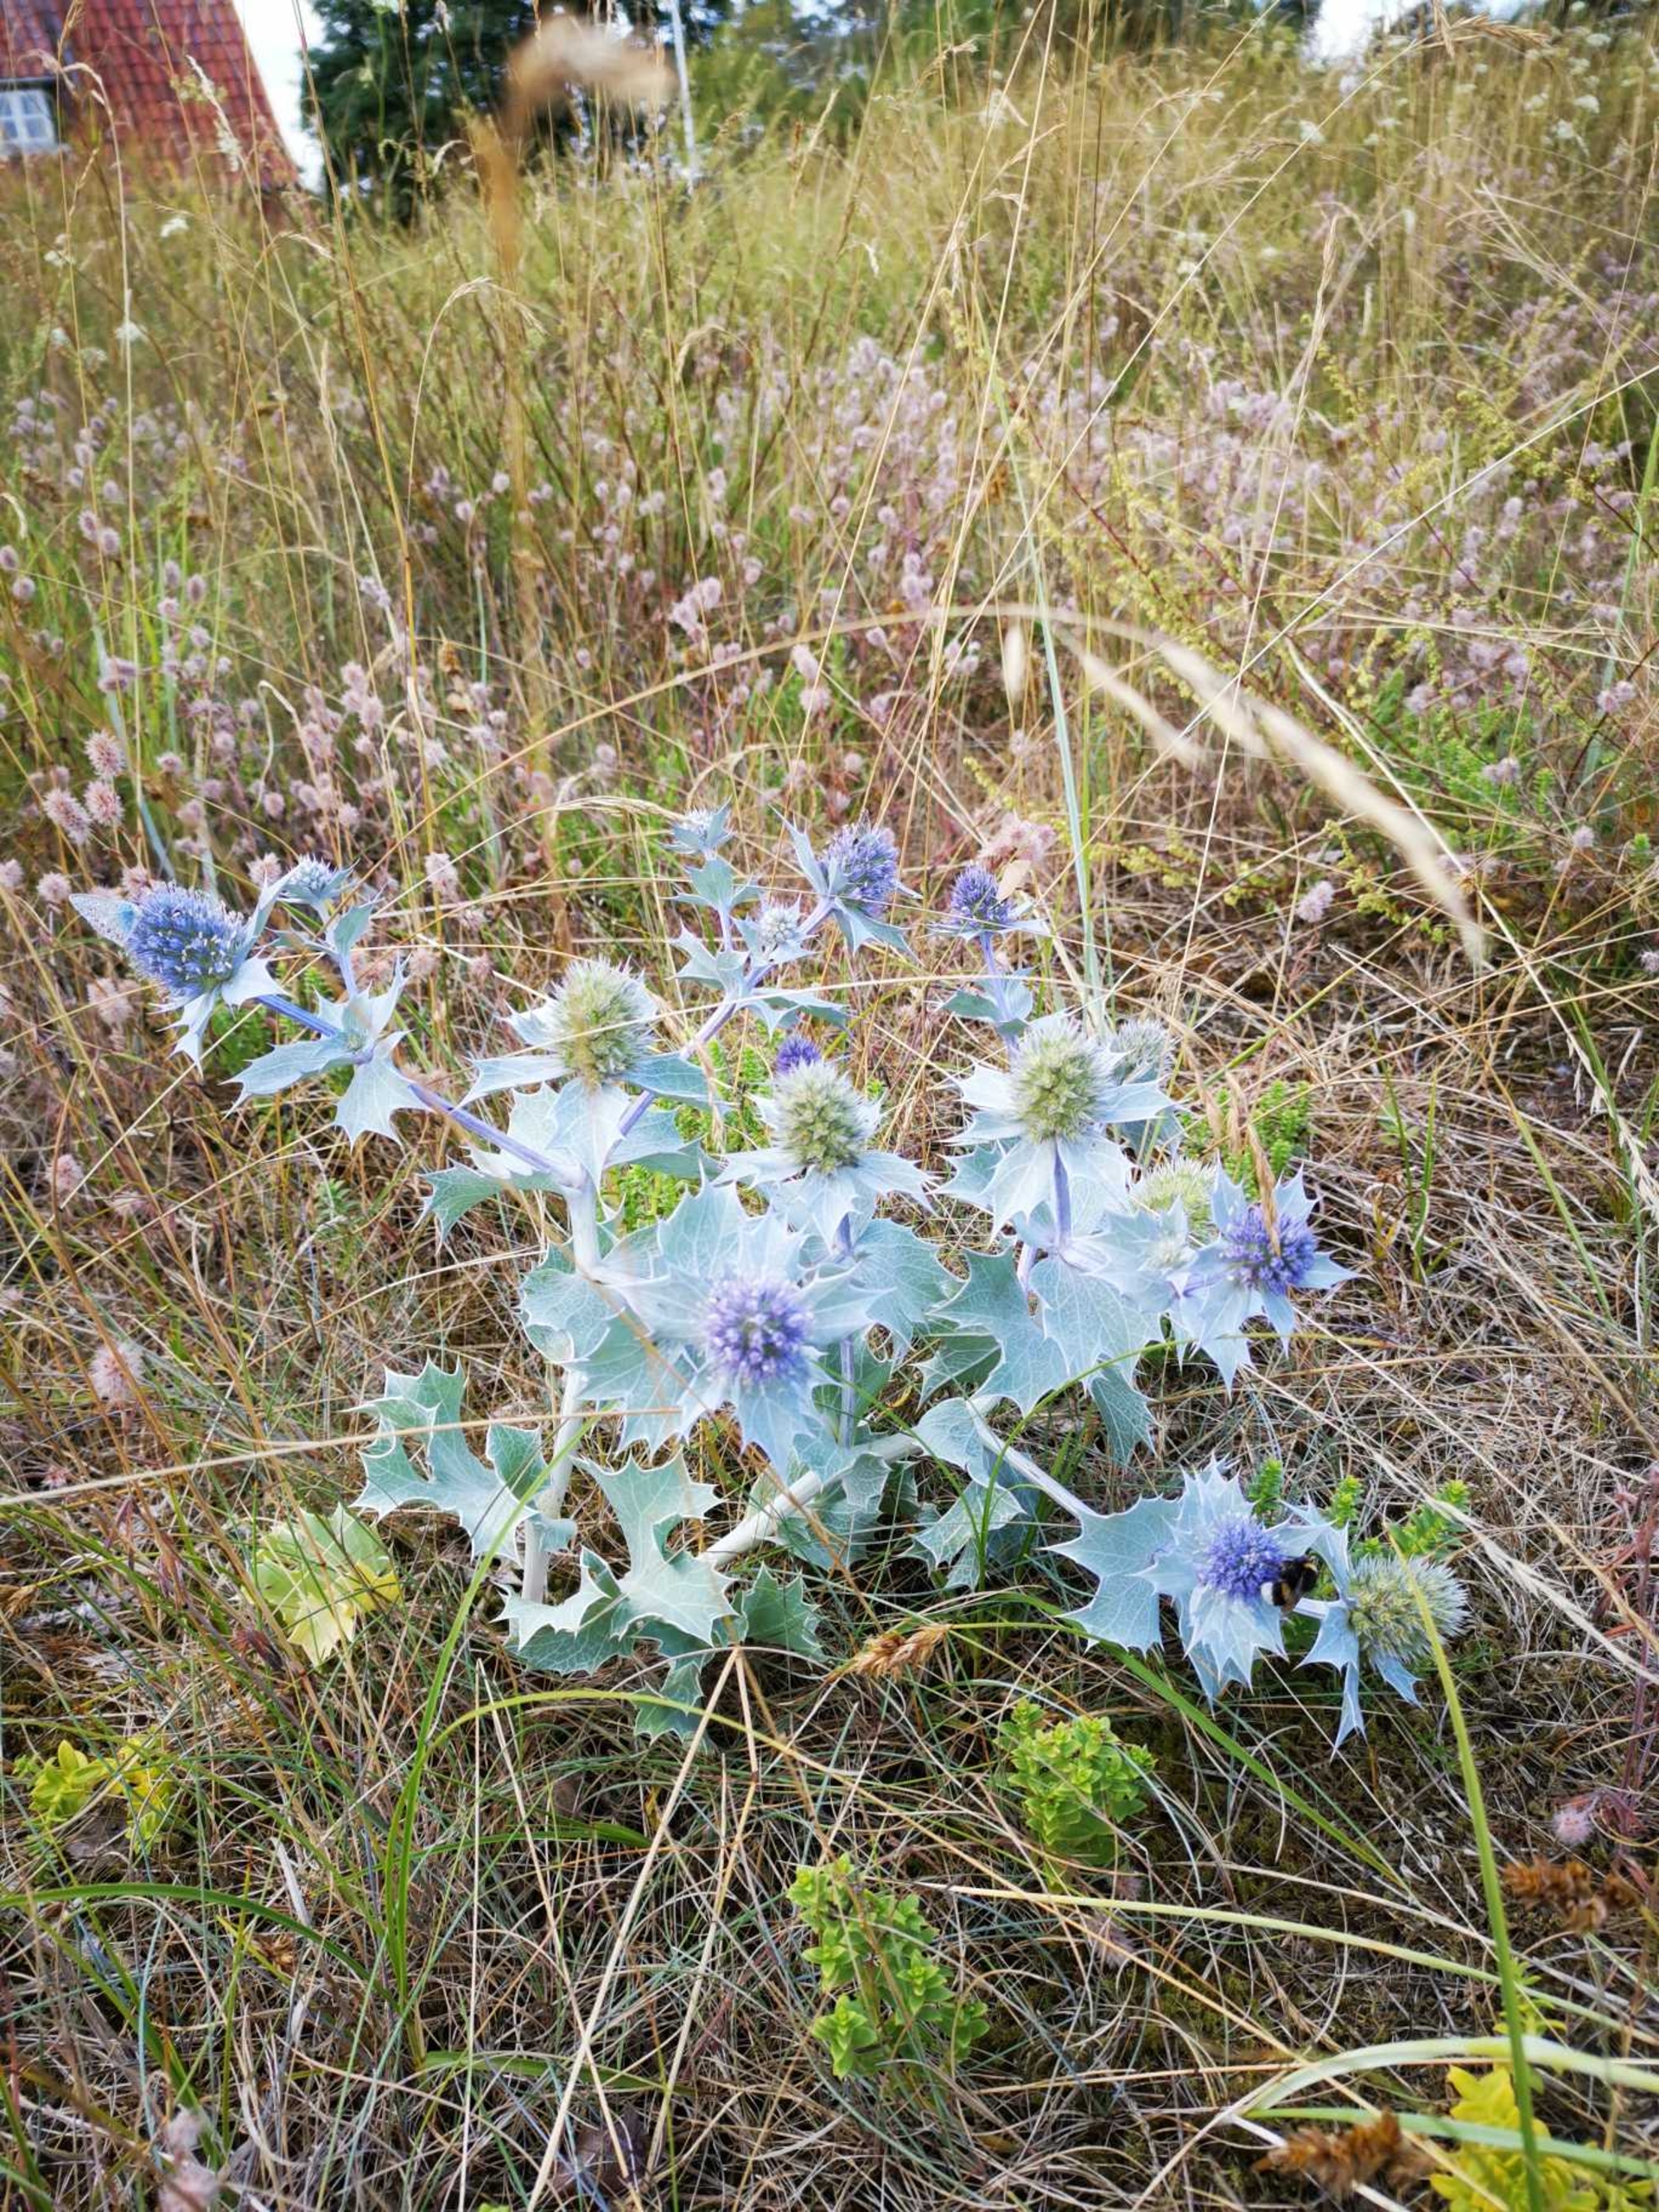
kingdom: Plantae
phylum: Tracheophyta
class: Magnoliopsida
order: Apiales
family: Apiaceae
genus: Eryngium
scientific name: Eryngium maritimum
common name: Strand-mandstro
